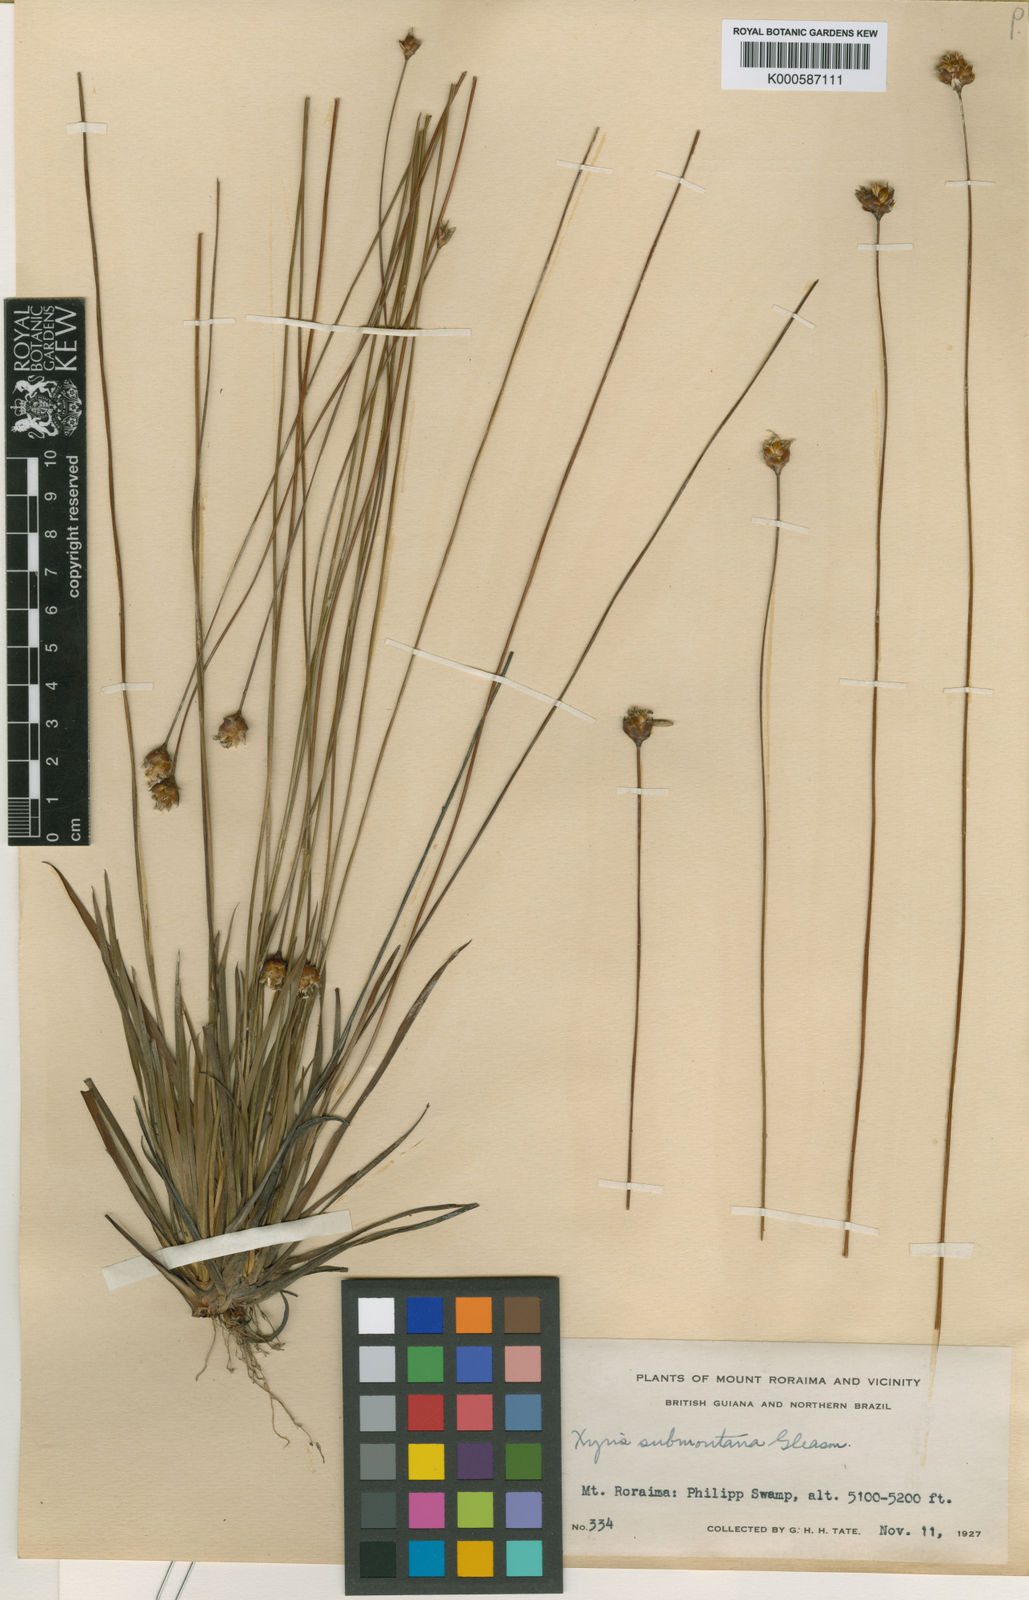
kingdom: Plantae
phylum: Tracheophyta
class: Liliopsida
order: Poales
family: Xyridaceae
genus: Xyris
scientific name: Xyris hymenachne
